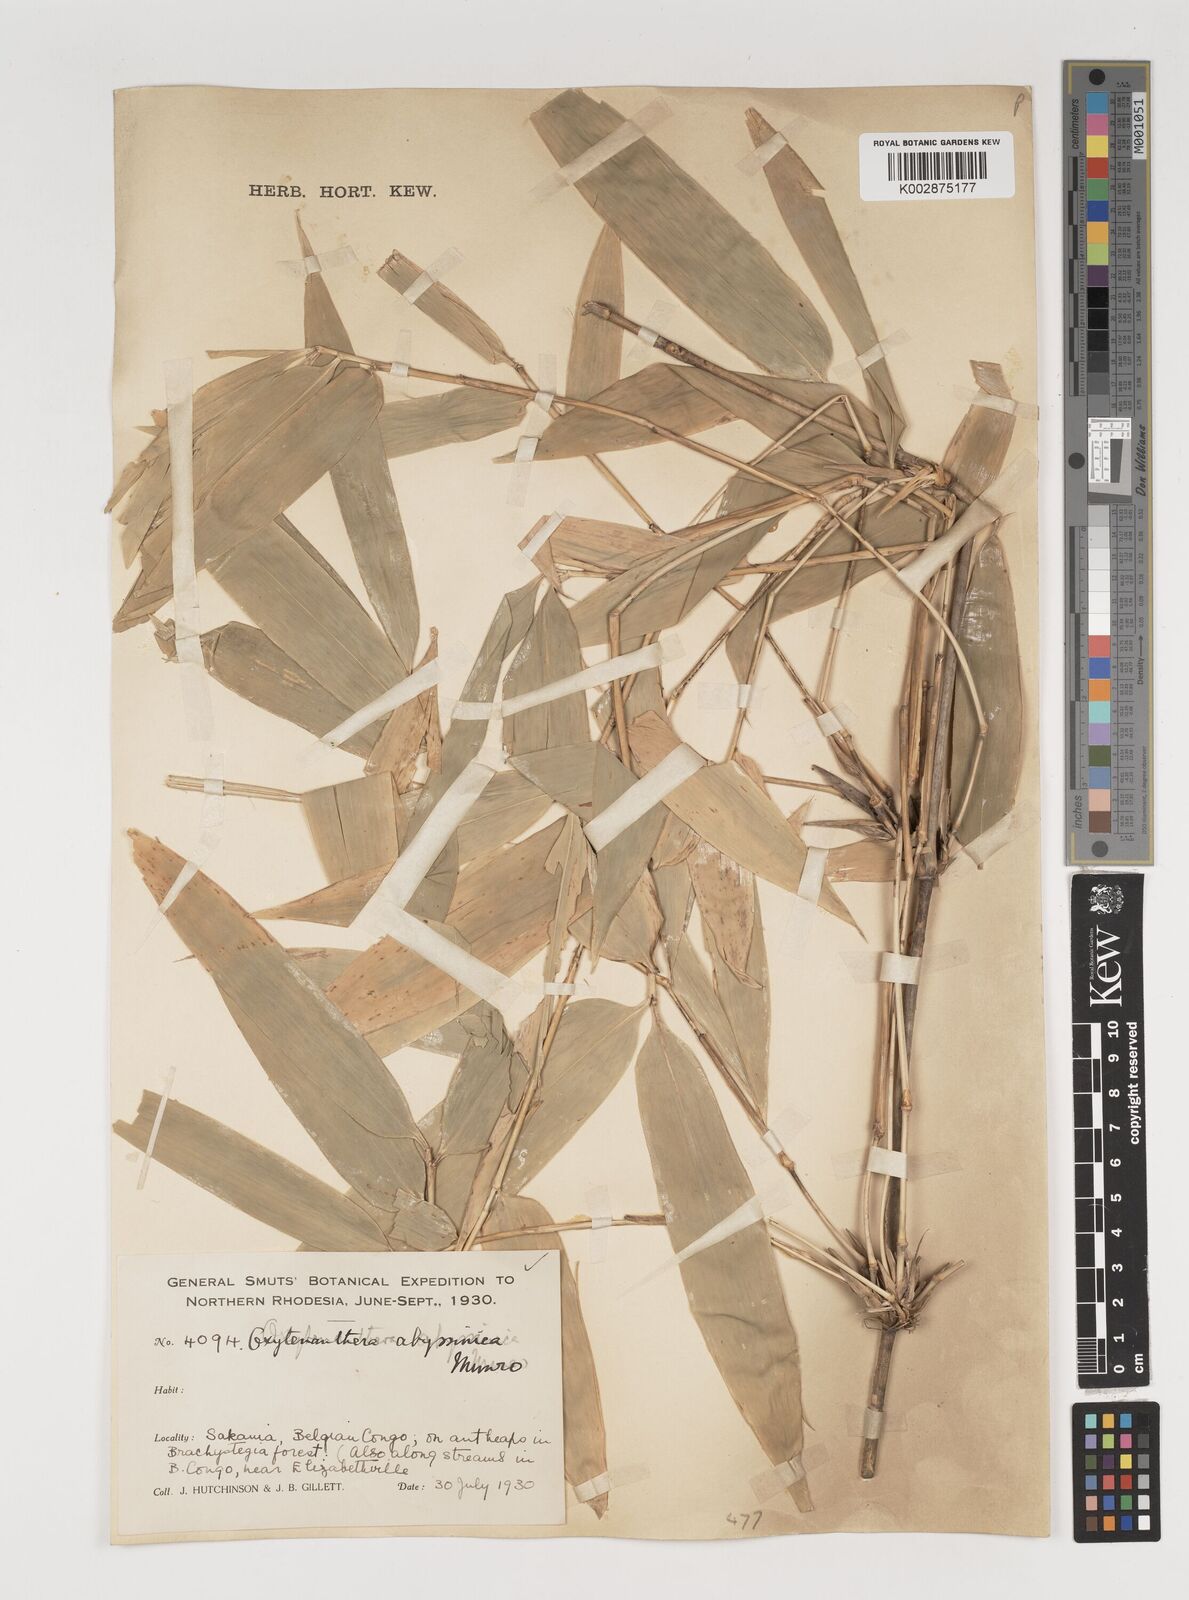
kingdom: Plantae
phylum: Tracheophyta
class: Liliopsida
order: Poales
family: Poaceae
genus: Oxytenanthera
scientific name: Oxytenanthera abyssinica
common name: Wine bamboo
